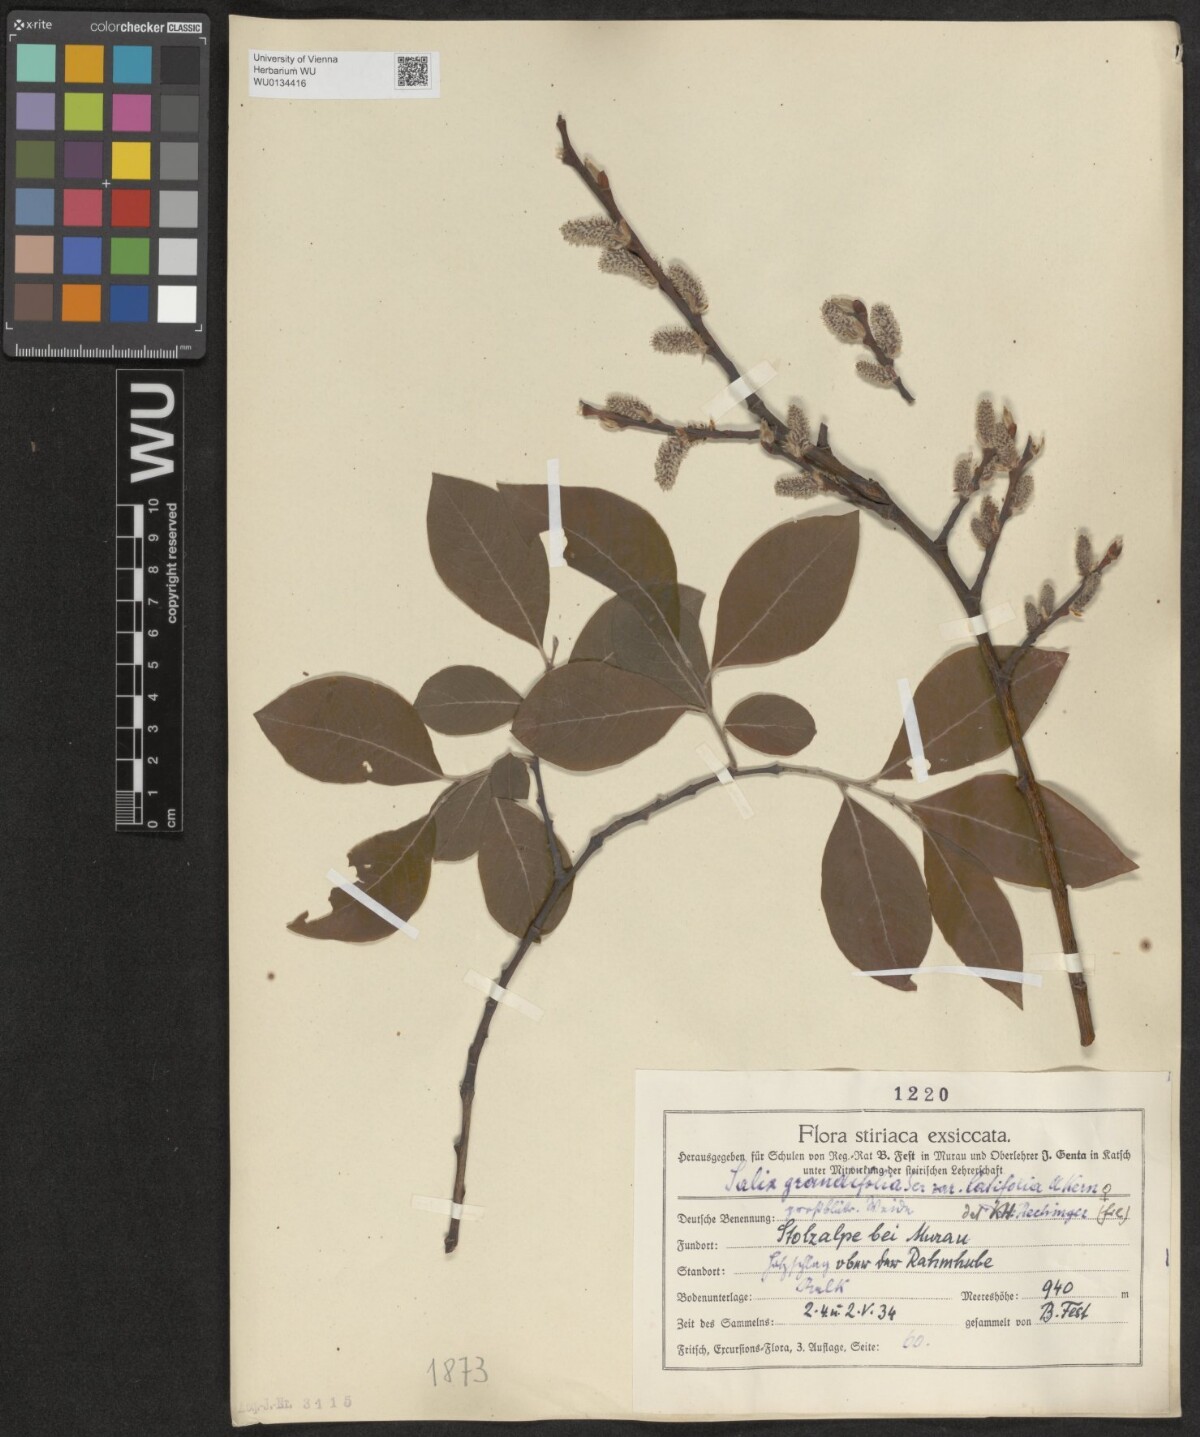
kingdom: Plantae
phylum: Tracheophyta
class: Magnoliopsida
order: Malpighiales
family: Salicaceae
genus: Salix
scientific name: Salix appendiculata
